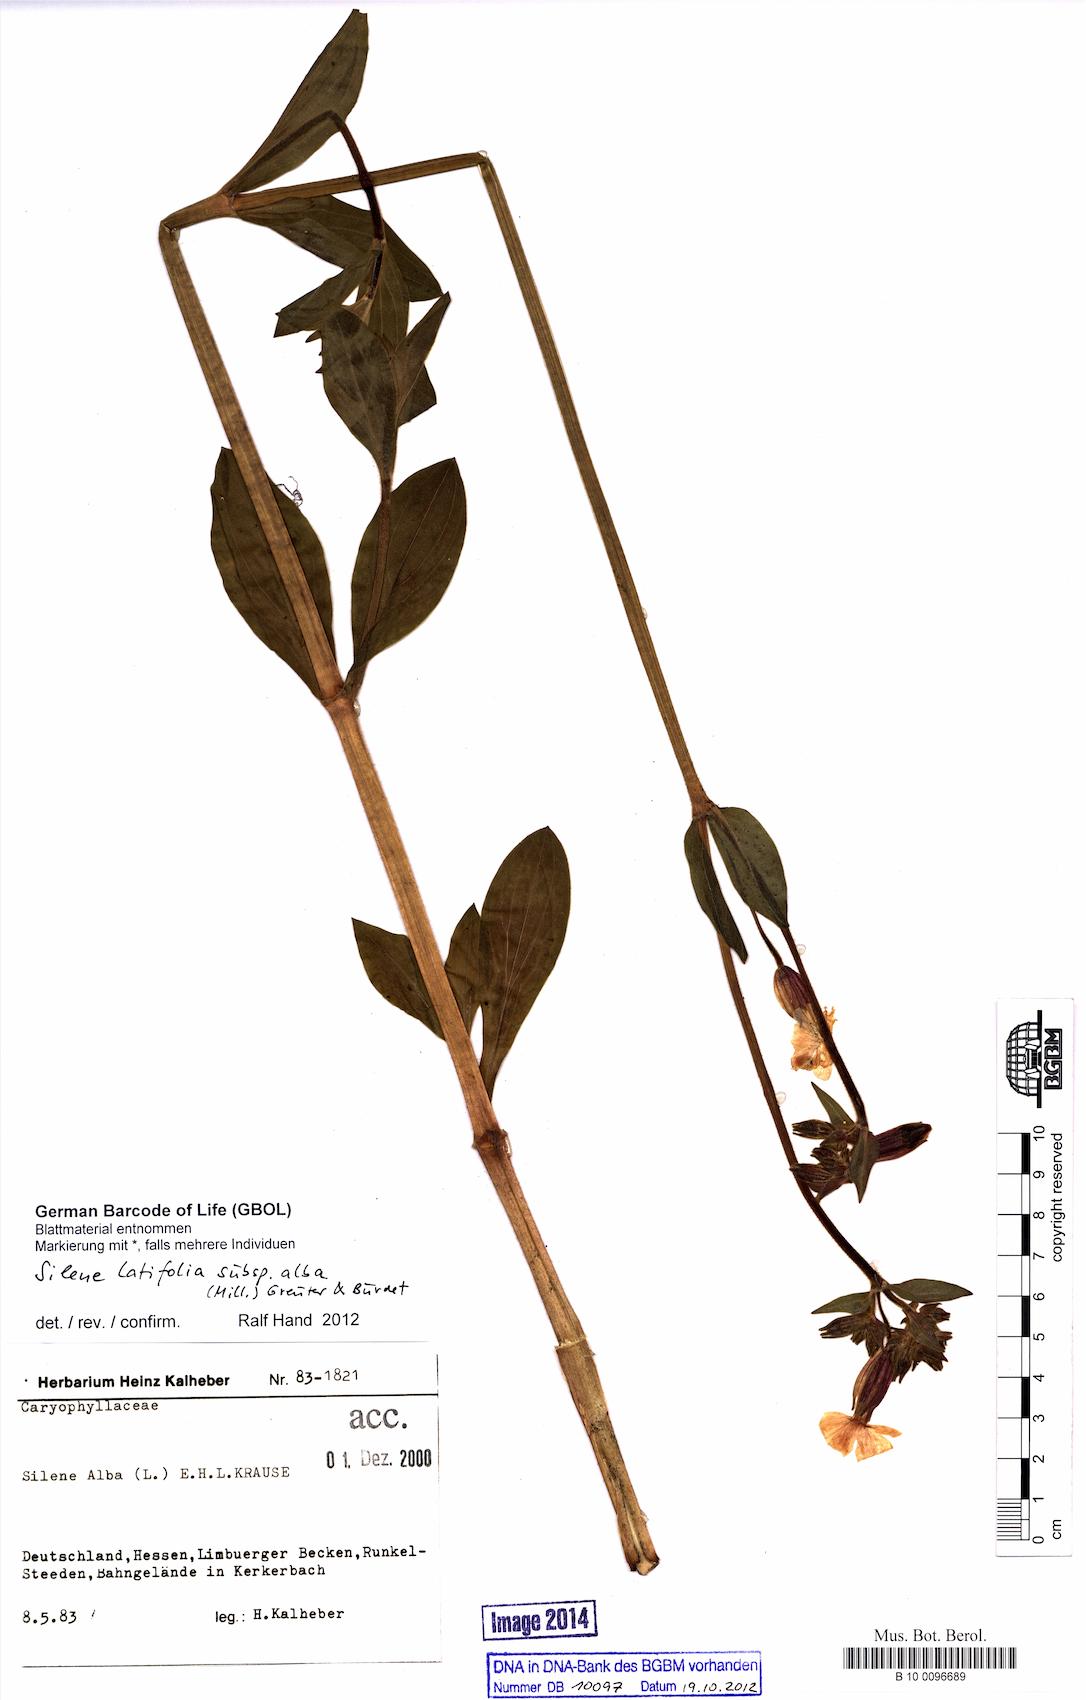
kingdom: Plantae
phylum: Tracheophyta
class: Magnoliopsida
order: Caryophyllales
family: Caryophyllaceae
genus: Silene
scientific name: Silene latifolia
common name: White campion
